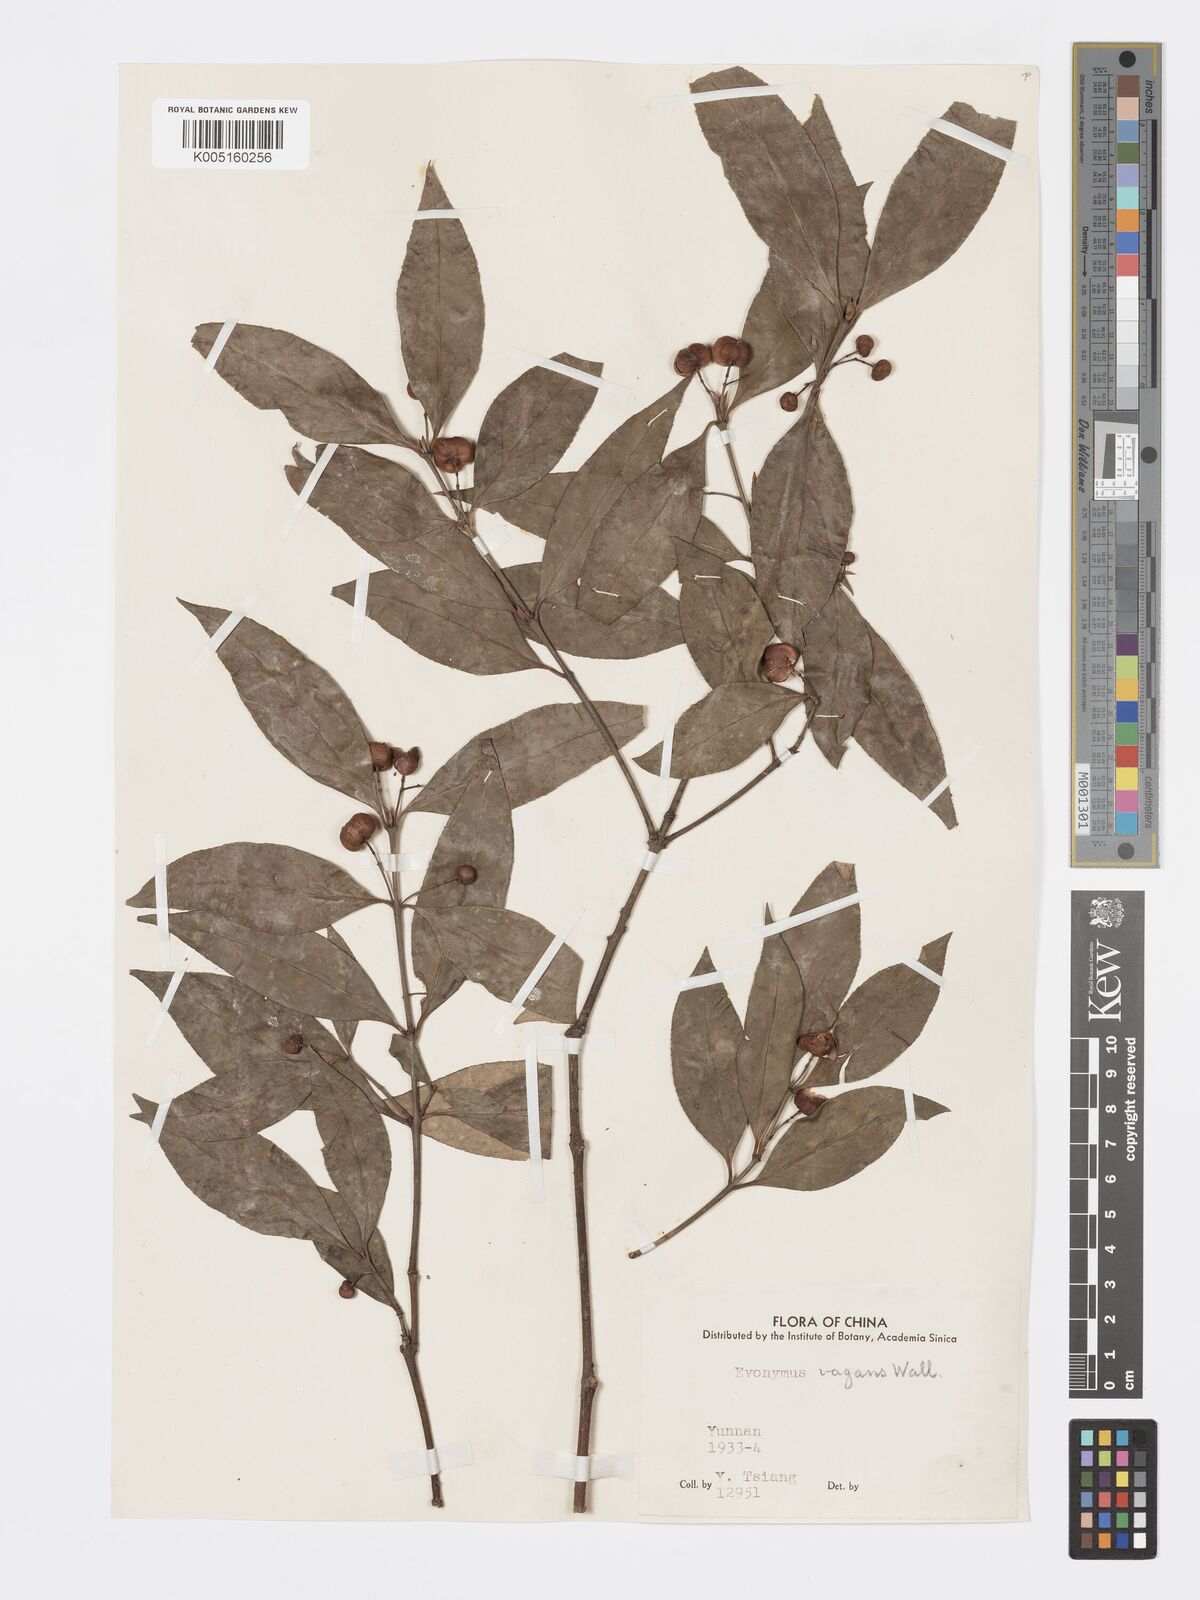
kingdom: Plantae
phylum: Tracheophyta
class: Magnoliopsida
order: Celastrales
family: Celastraceae
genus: Euonymus
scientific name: Euonymus bockii
